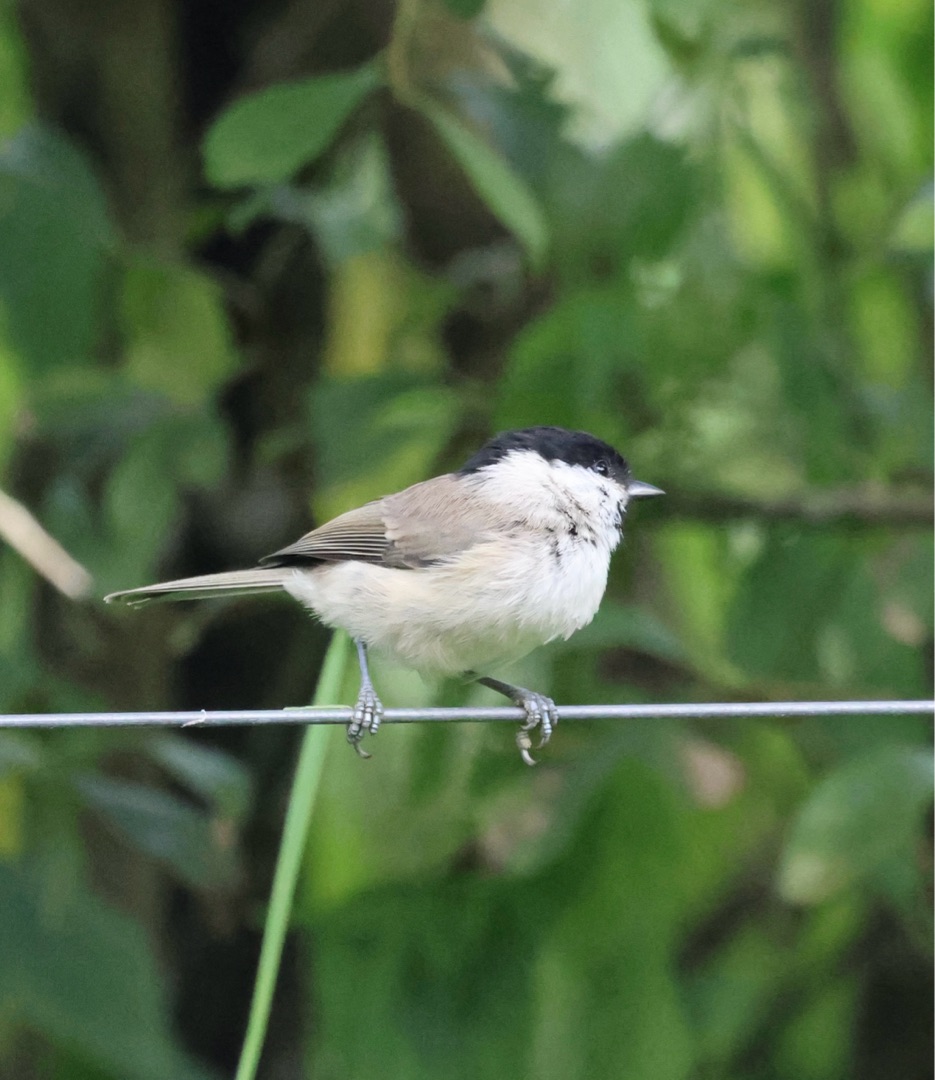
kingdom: Animalia
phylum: Chordata
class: Aves
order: Passeriformes
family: Paridae
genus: Poecile
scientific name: Poecile palustris
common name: Sumpmejse
